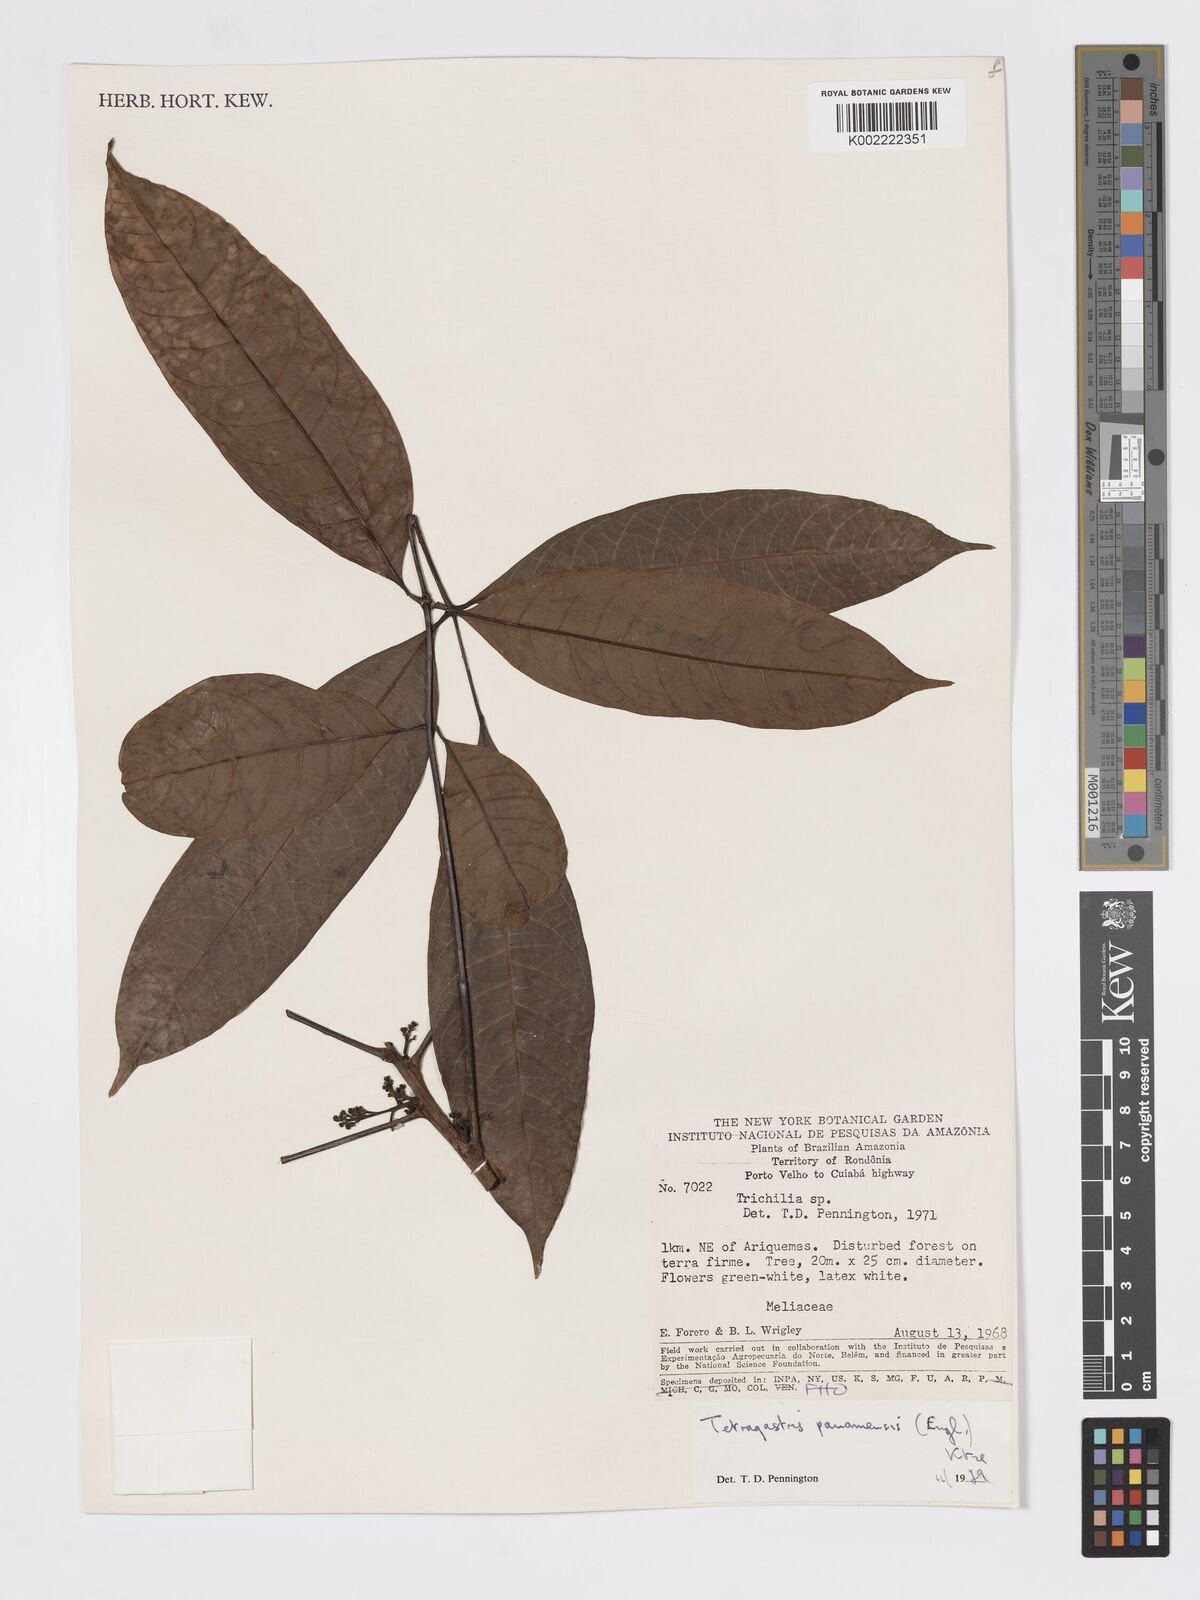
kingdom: Plantae
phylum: Tracheophyta
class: Magnoliopsida
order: Sapindales
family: Burseraceae
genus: Tetragastris
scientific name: Tetragastris panamensis
